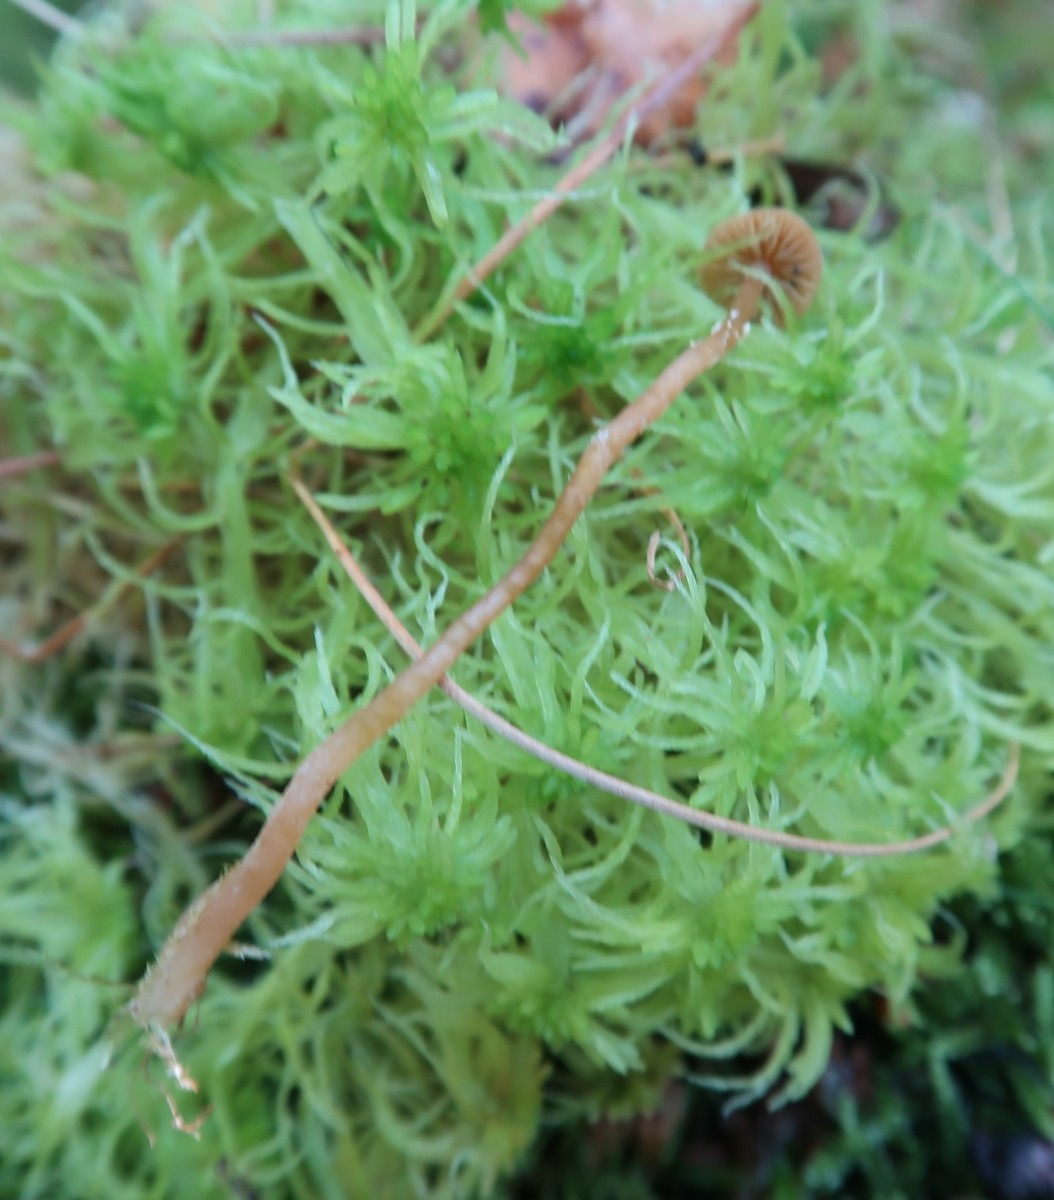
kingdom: Fungi
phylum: Basidiomycota
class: Agaricomycetes
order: Agaricales
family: Hymenogastraceae
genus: Galerina
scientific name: Galerina paludosa
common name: mose-hjelmhat
